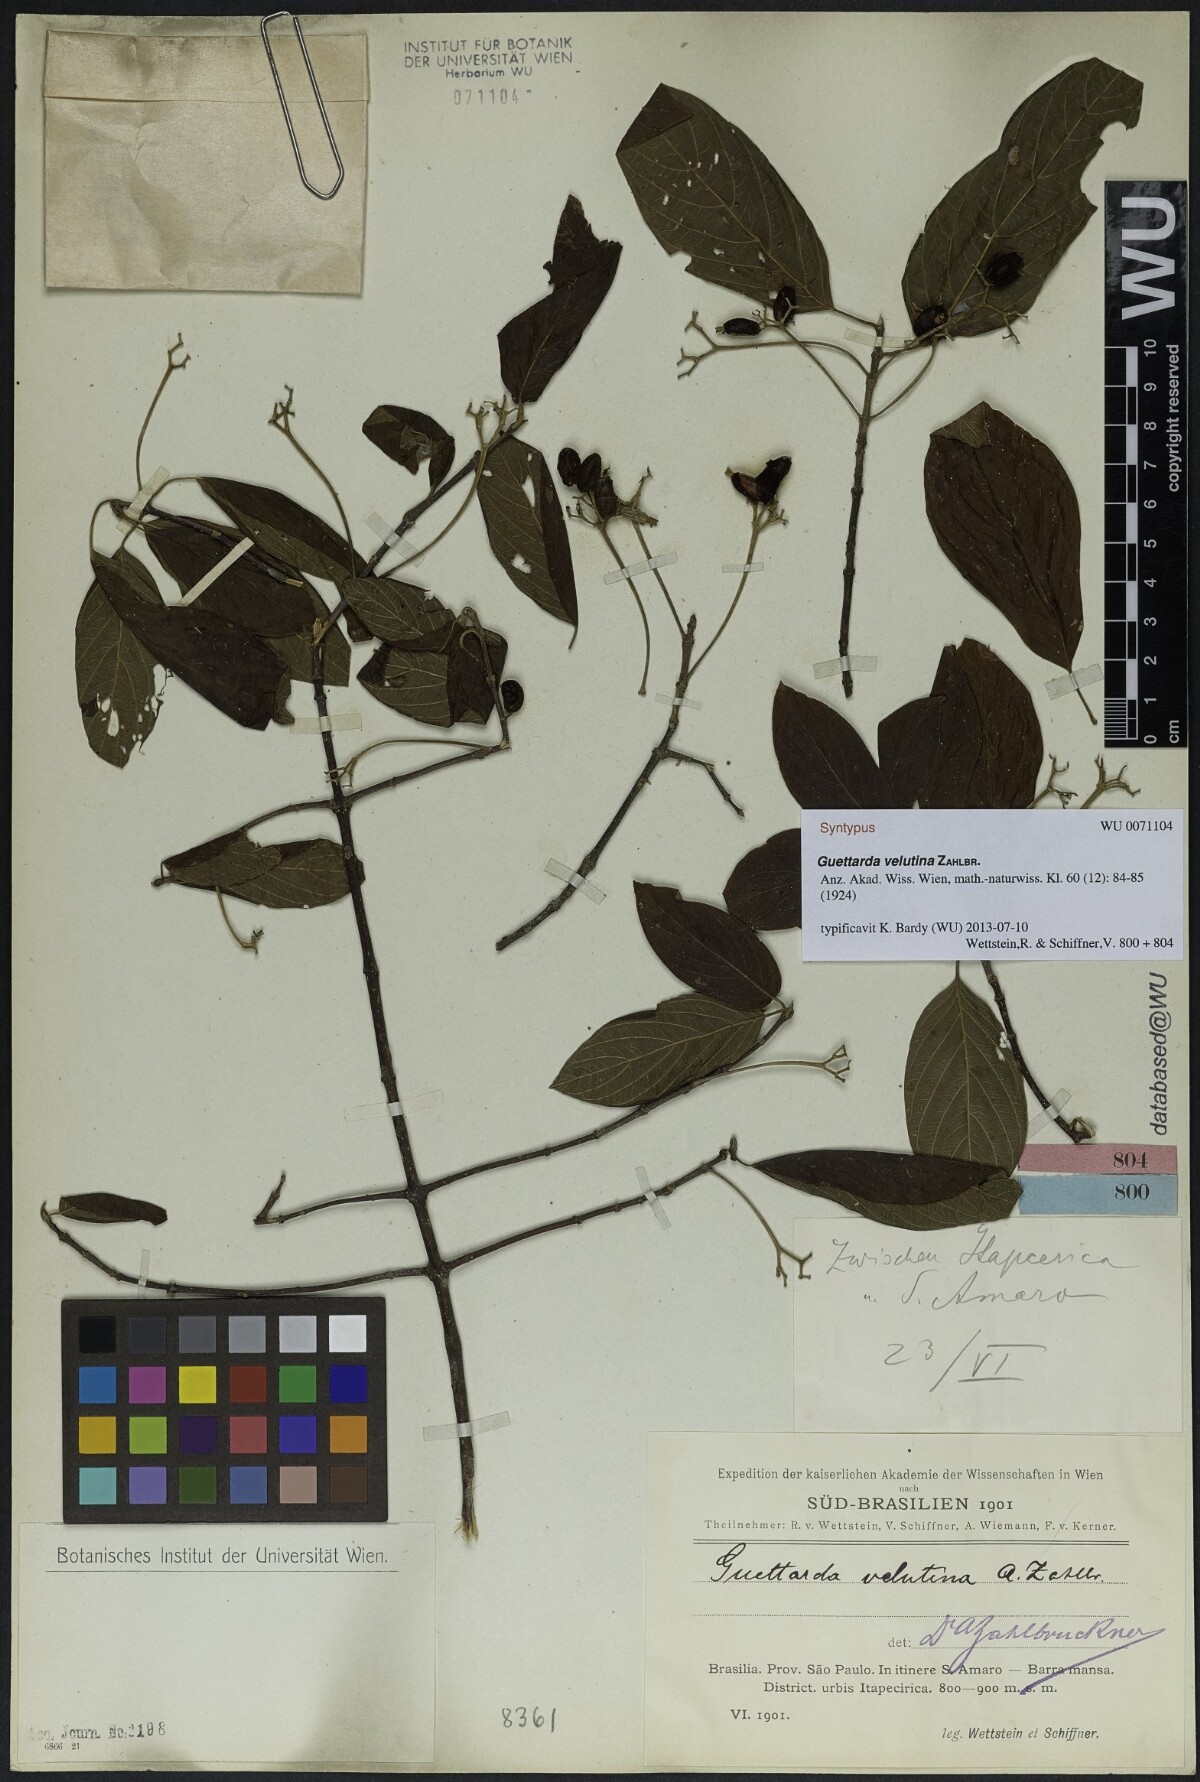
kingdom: Plantae
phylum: Tracheophyta
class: Magnoliopsida
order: Gentianales
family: Rubiaceae
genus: Guettarda
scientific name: Guettarda velutina
